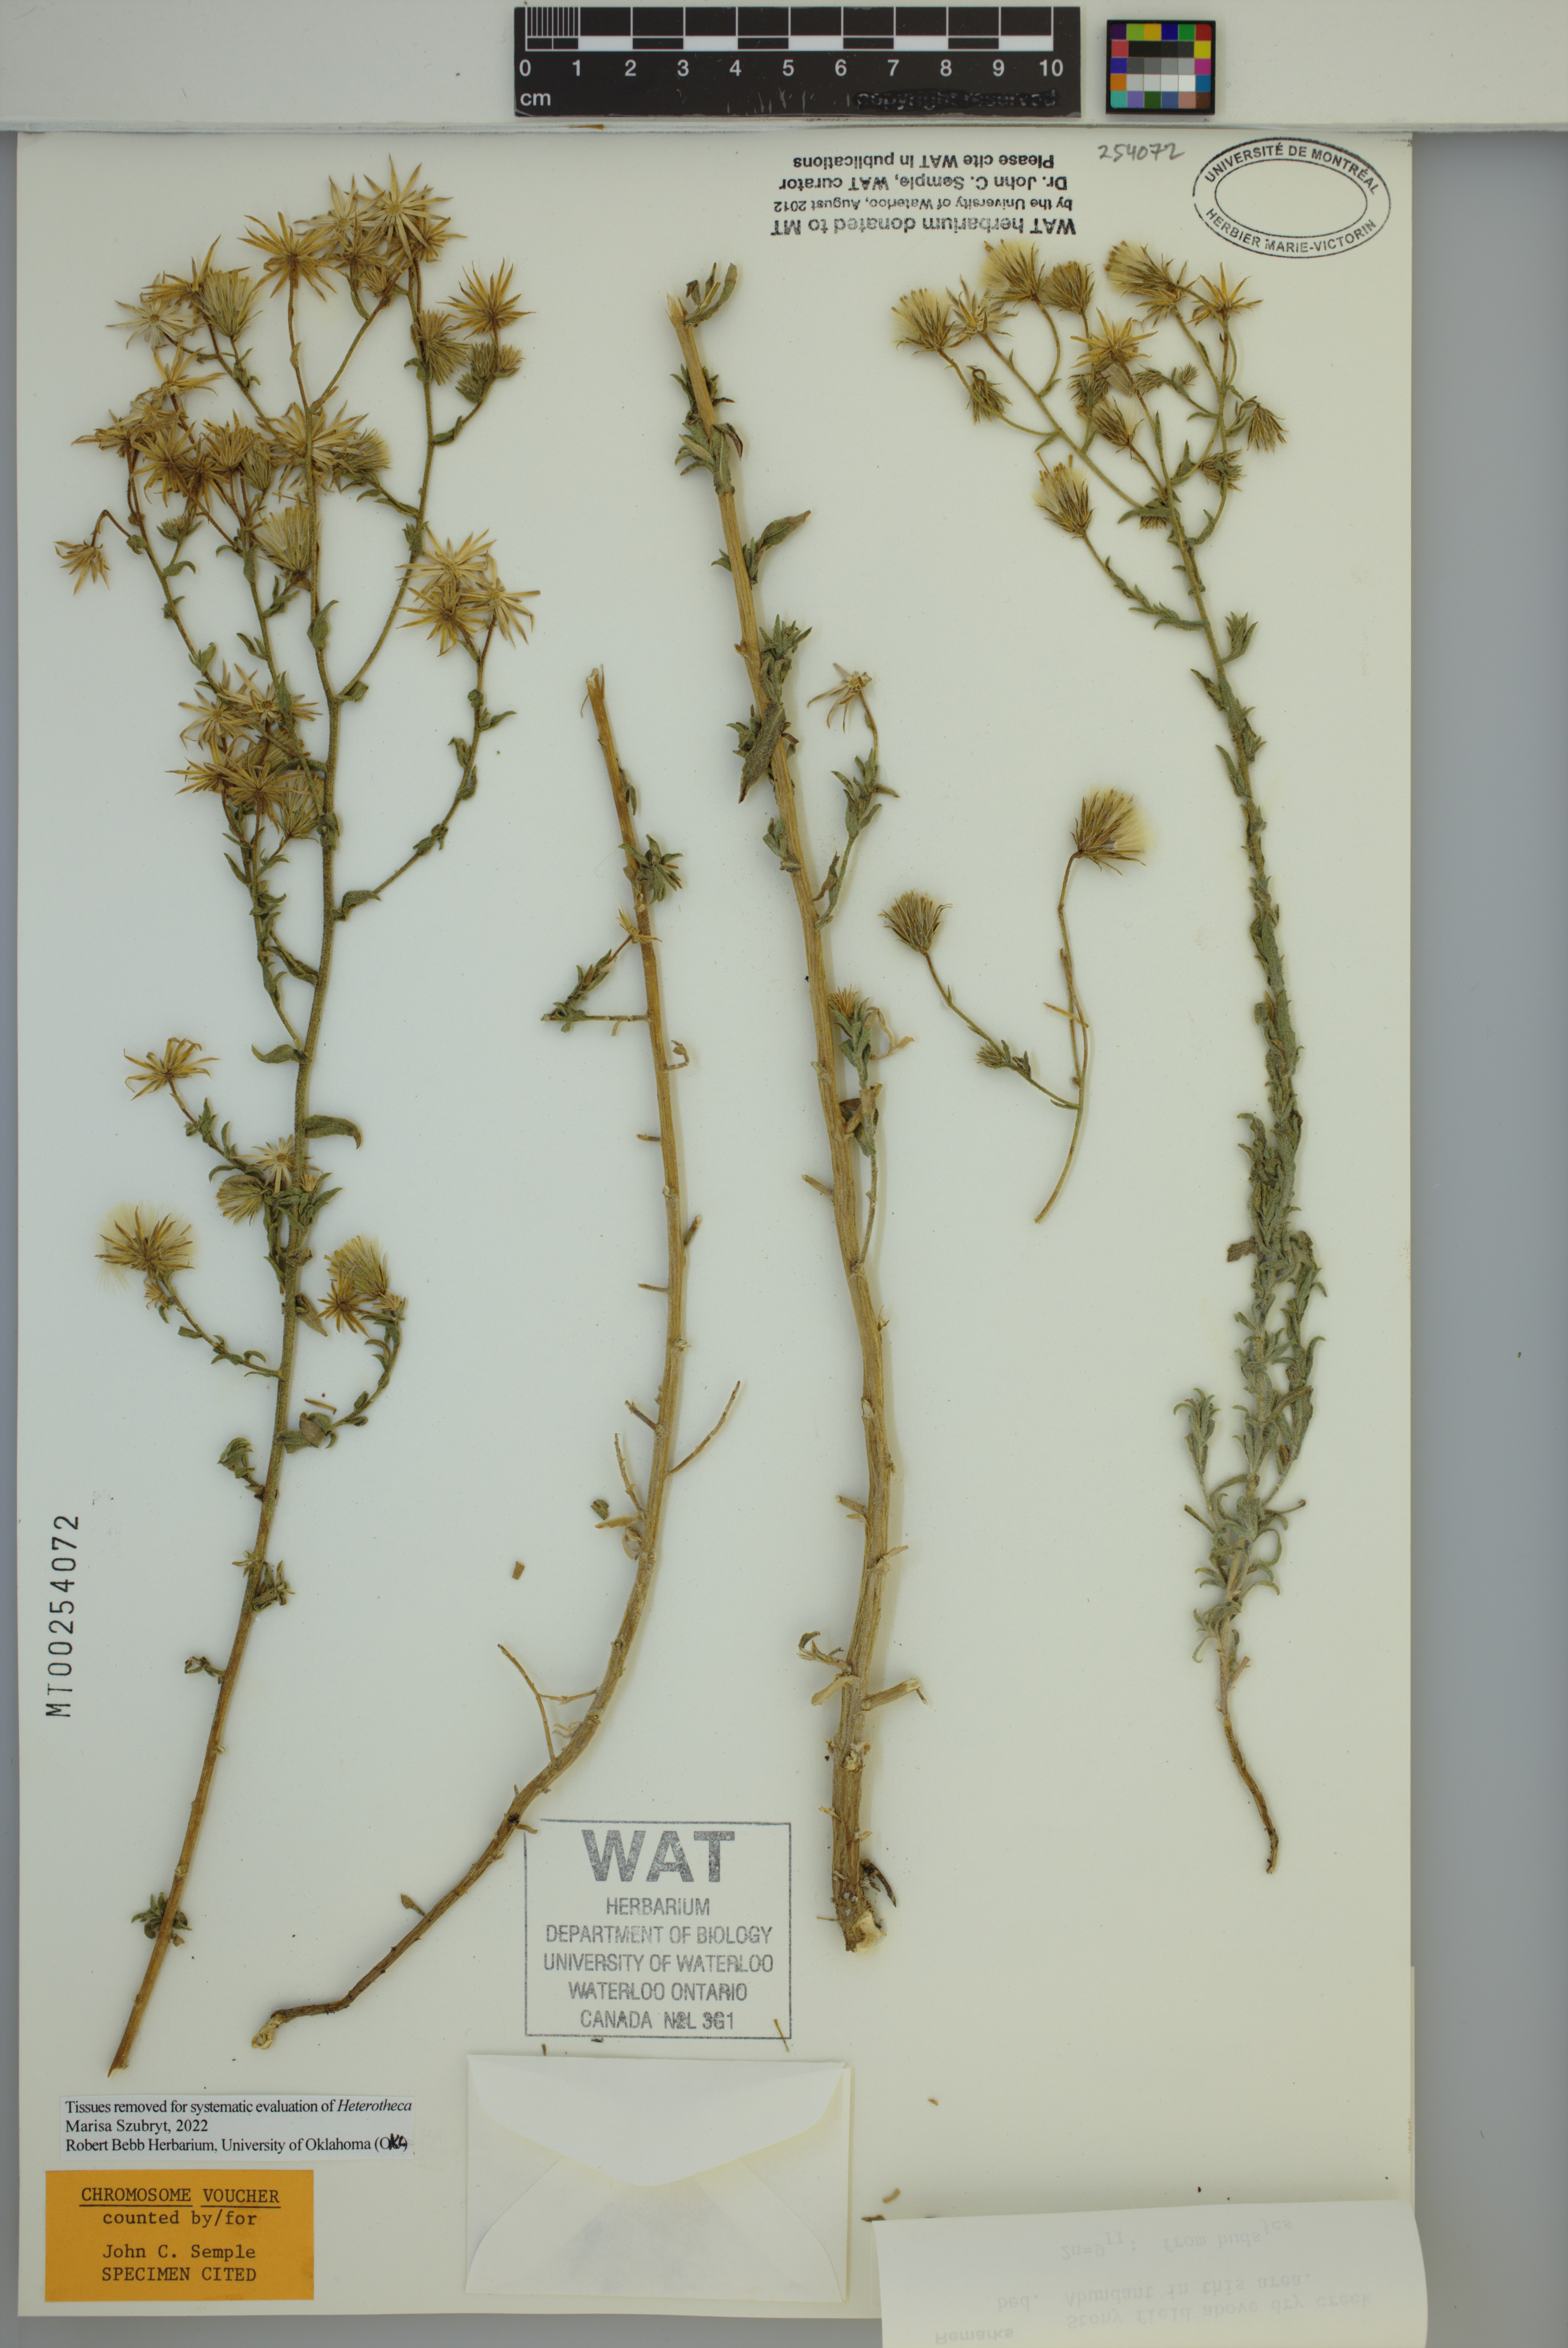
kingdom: Plantae
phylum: Tracheophyta
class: Magnoliopsida
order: Asterales
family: Asteraceae
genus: Heterotheca
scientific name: Heterotheca scaberrima
